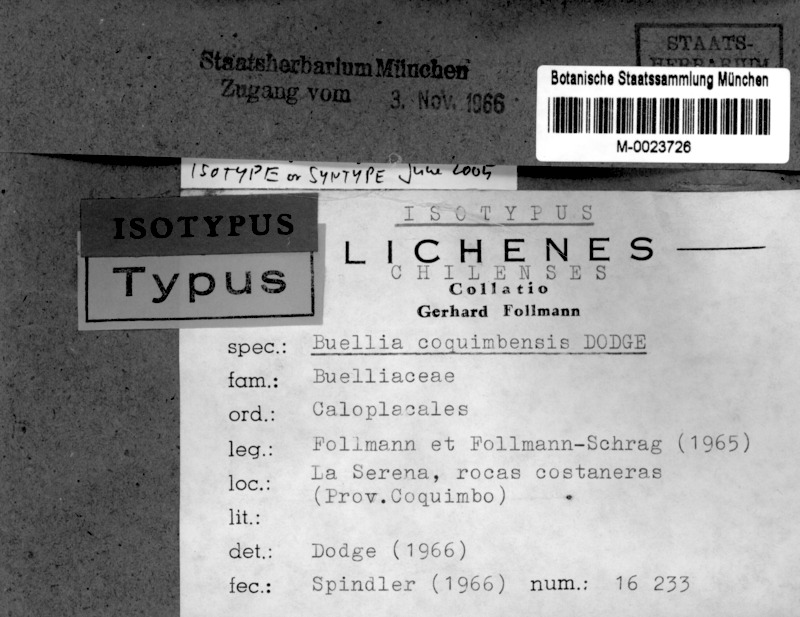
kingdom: Fungi
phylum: Ascomycota
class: Lecanoromycetes
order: Caliciales
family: Caliciaceae
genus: Tetramelas
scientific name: Tetramelas coquimbensis
